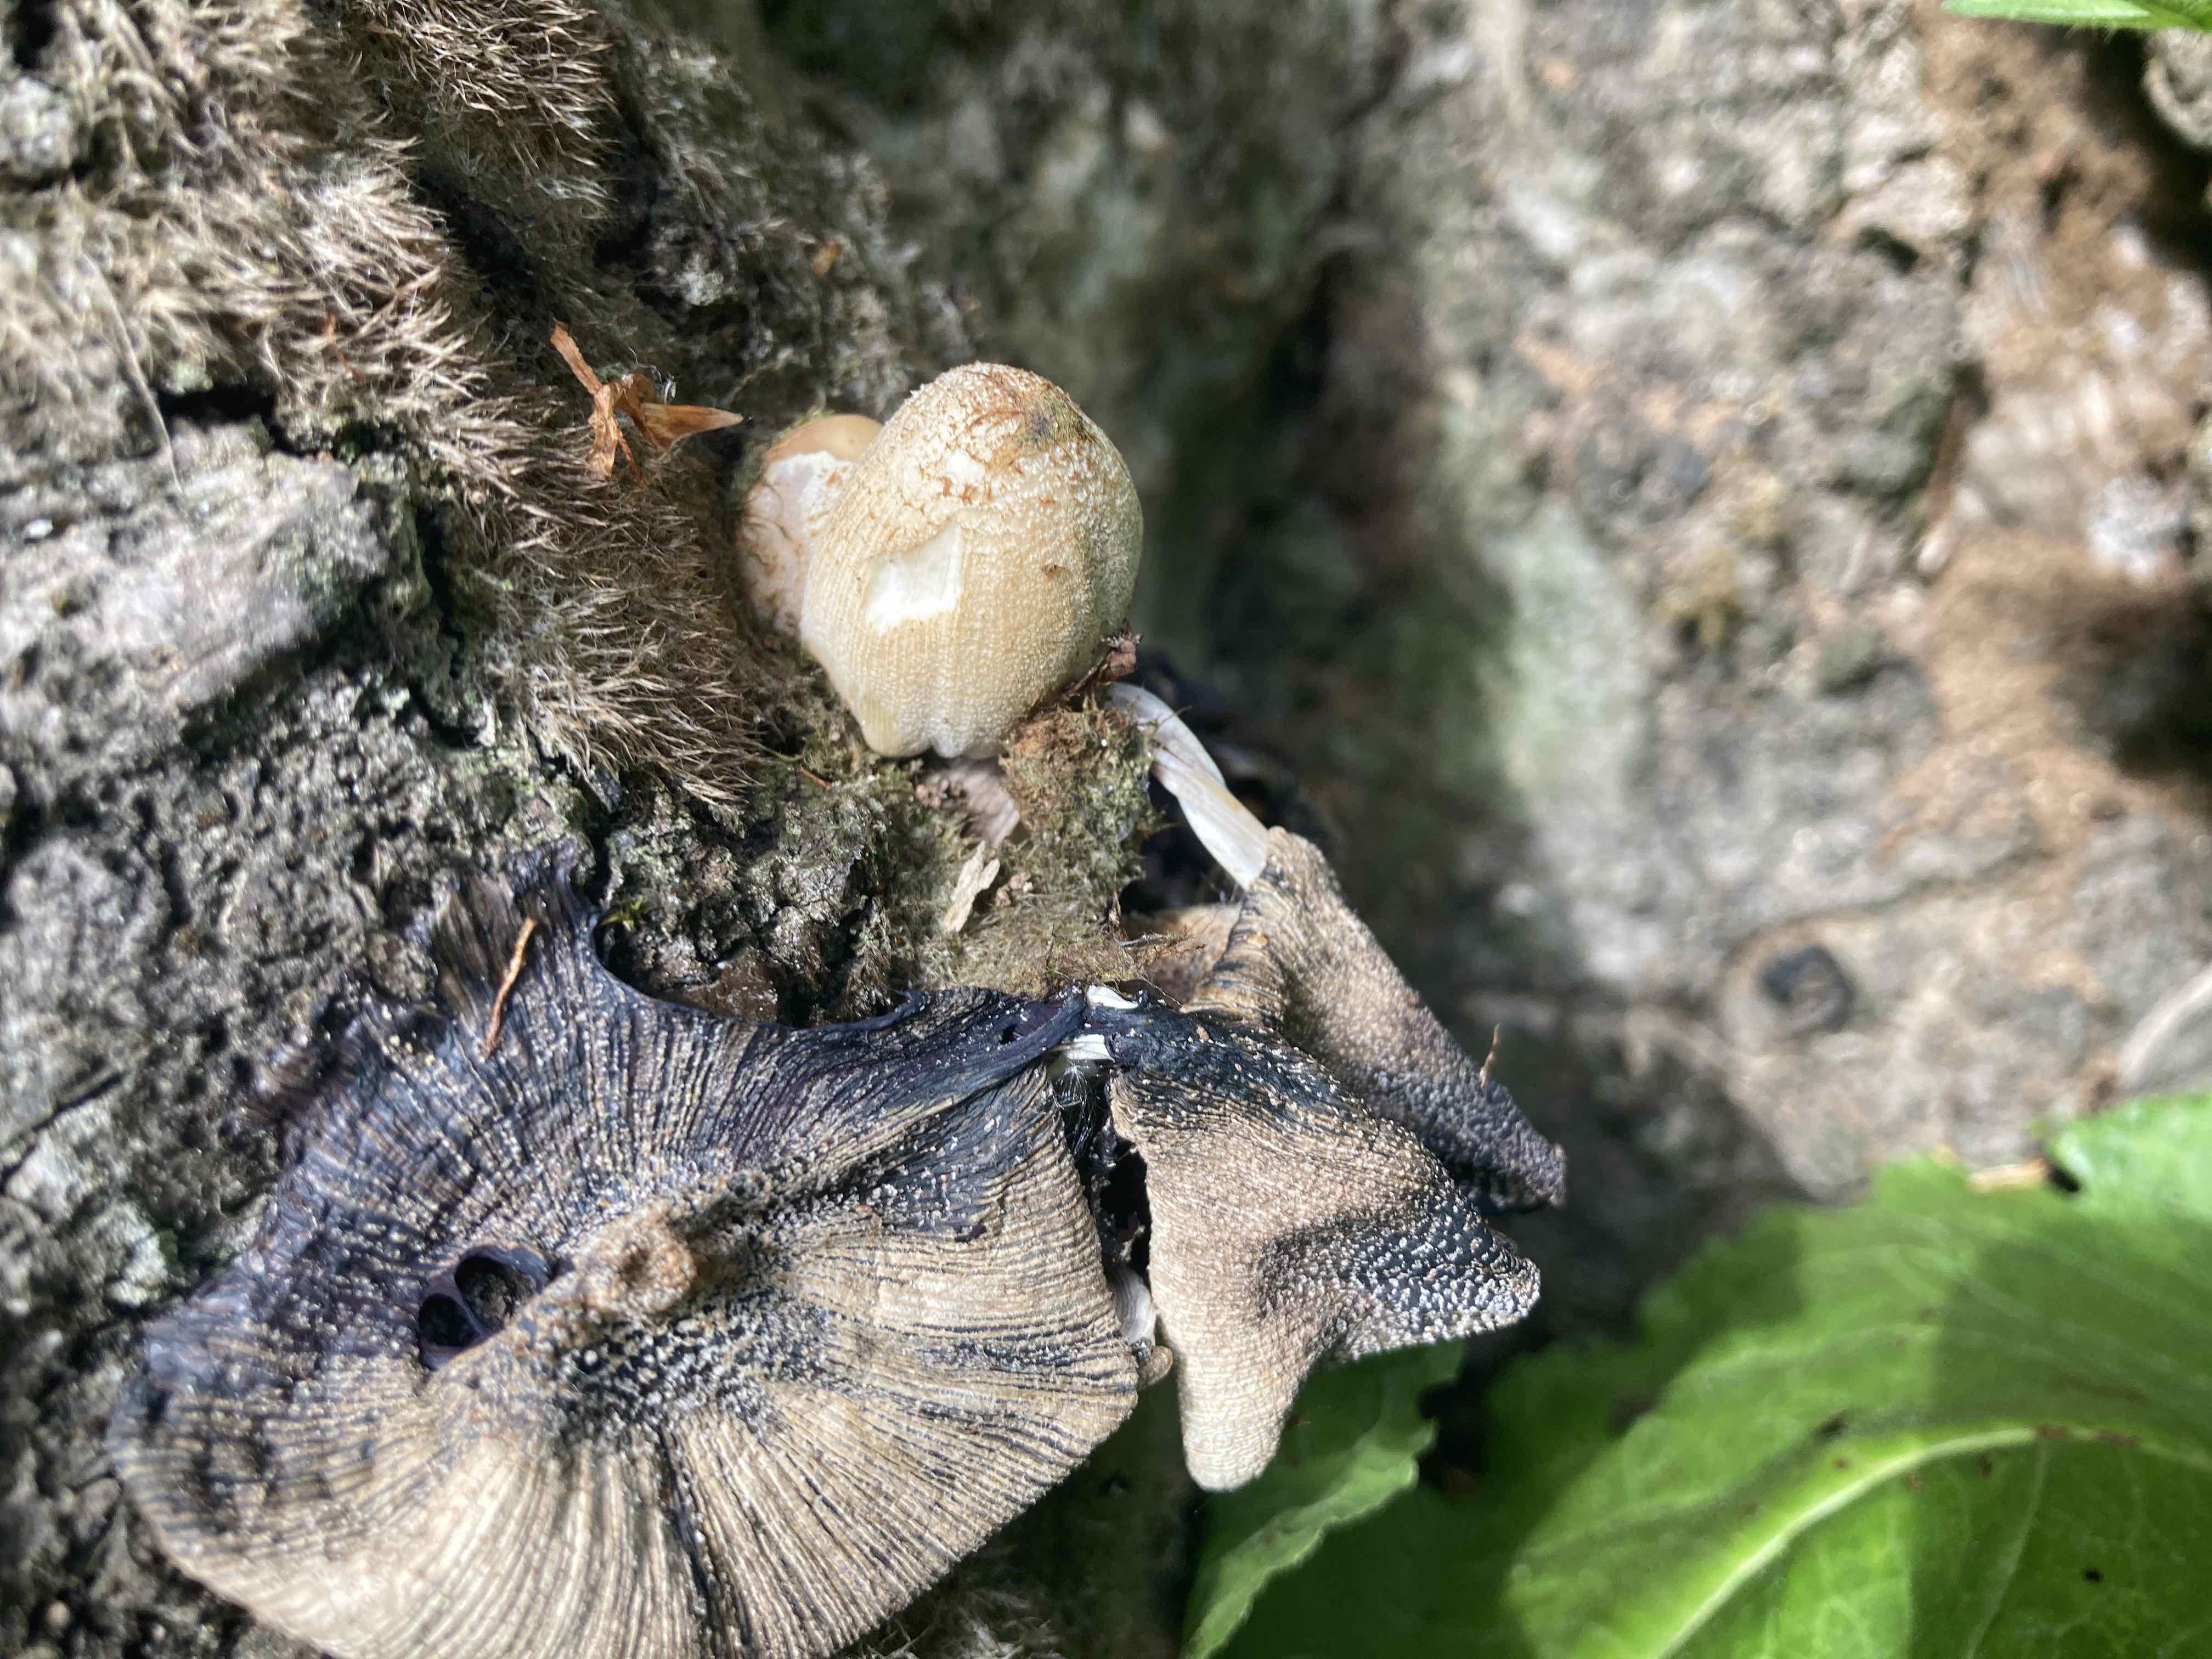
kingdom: Fungi
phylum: Basidiomycota
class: Agaricomycetes
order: Agaricales
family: Psathyrellaceae
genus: Coprinellus
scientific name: Coprinellus domesticus
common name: hus-blækhat
